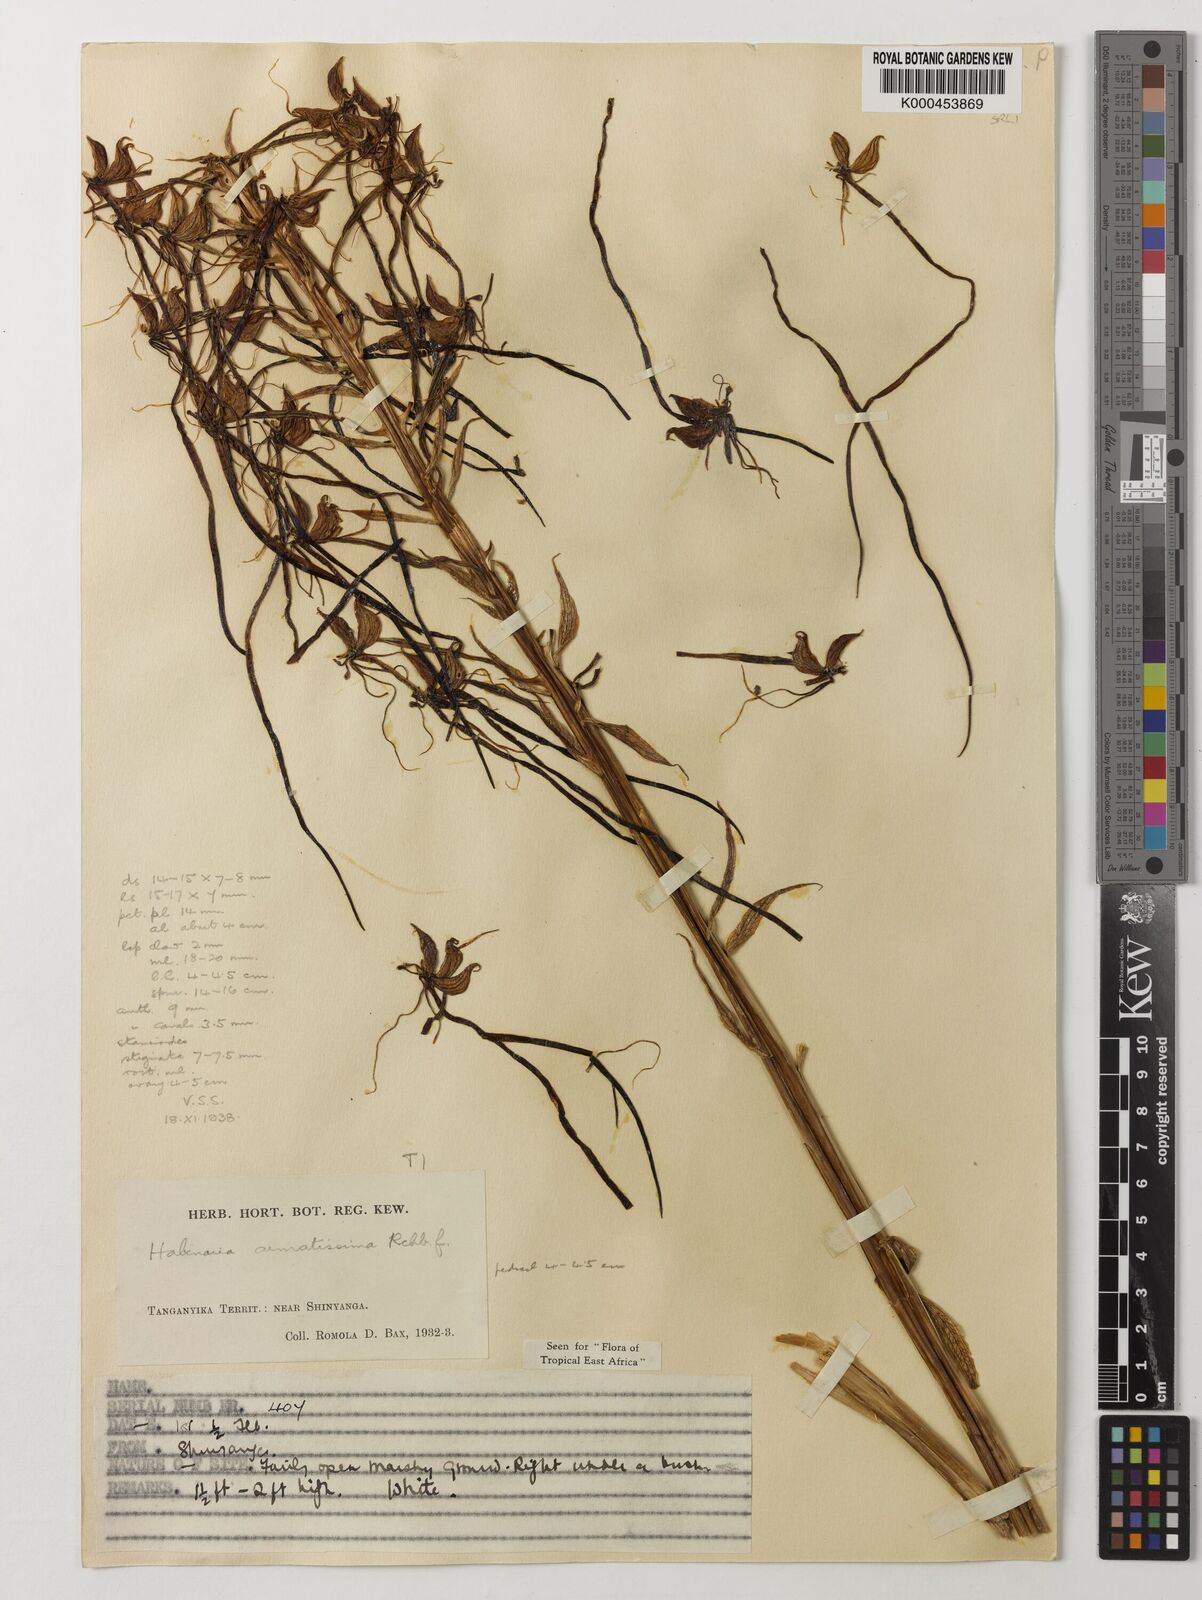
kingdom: Plantae
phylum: Tracheophyta
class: Liliopsida
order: Asparagales
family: Orchidaceae
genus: Habenaria
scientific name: Habenaria armatissima
